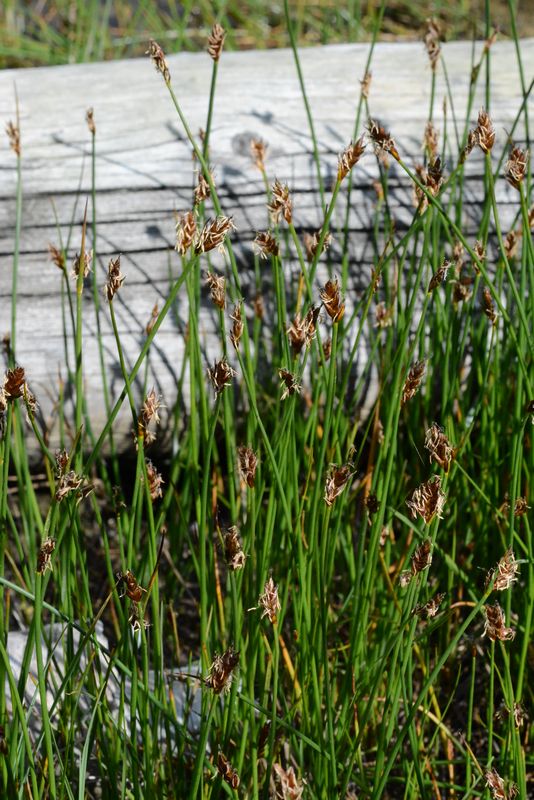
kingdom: Plantae
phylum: Tracheophyta
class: Liliopsida
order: Poales
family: Cyperaceae
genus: Blysmus
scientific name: Blysmus rufus
